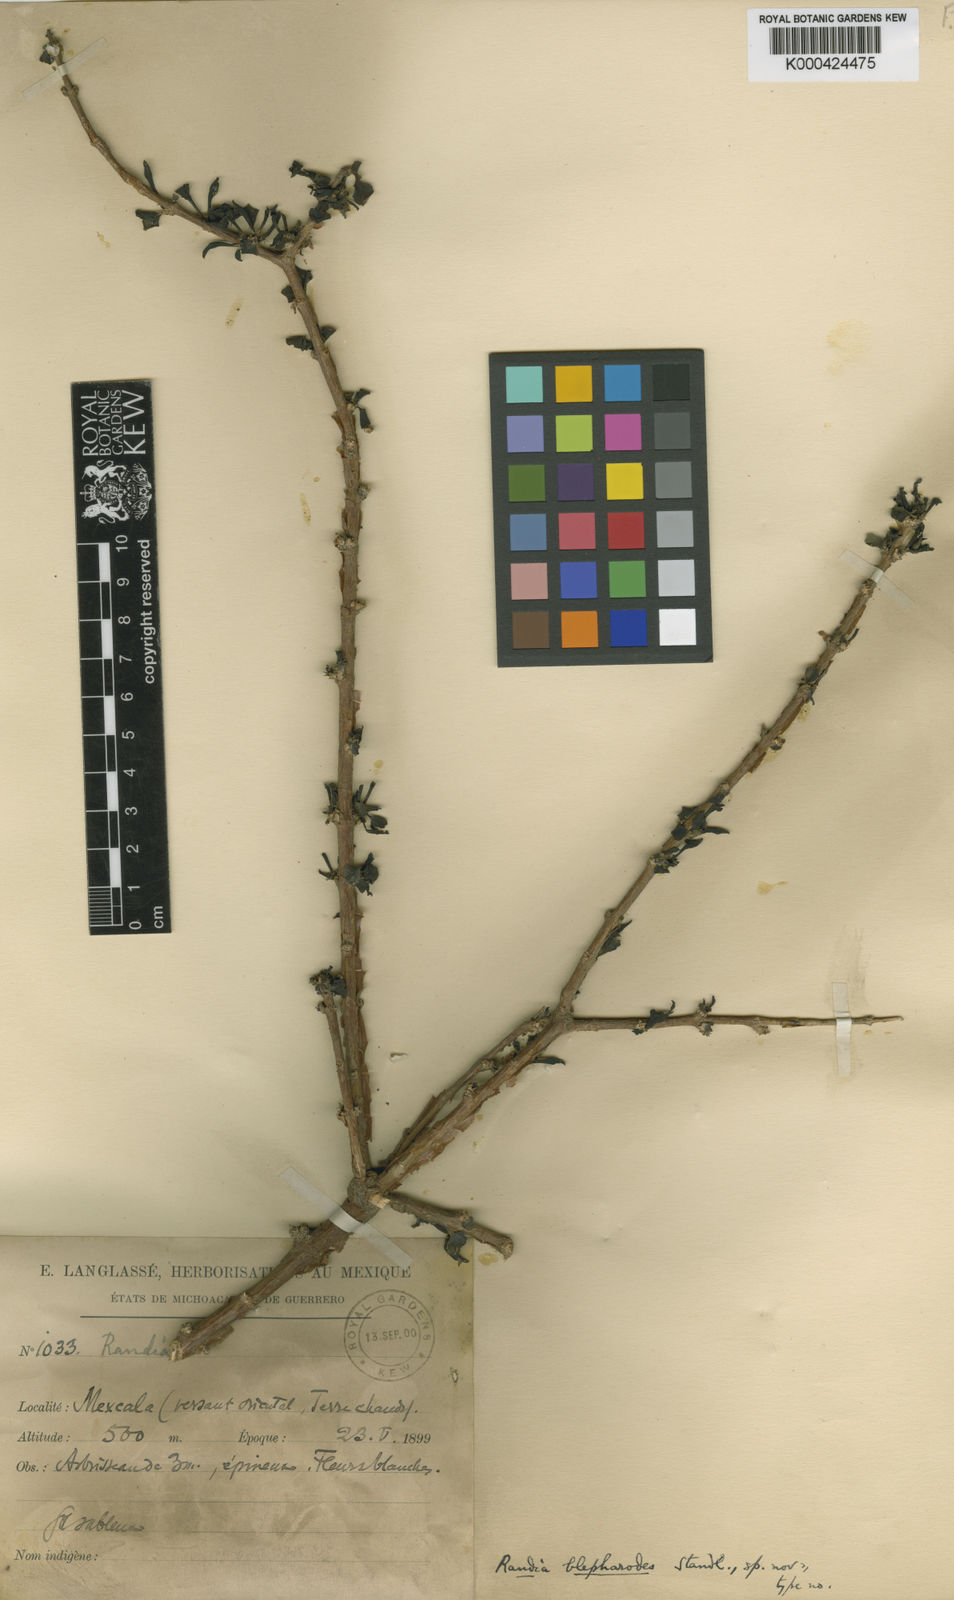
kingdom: Plantae
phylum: Tracheophyta
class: Magnoliopsida
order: Gentianales
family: Rubiaceae
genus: Randia
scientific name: Randia thurberi
